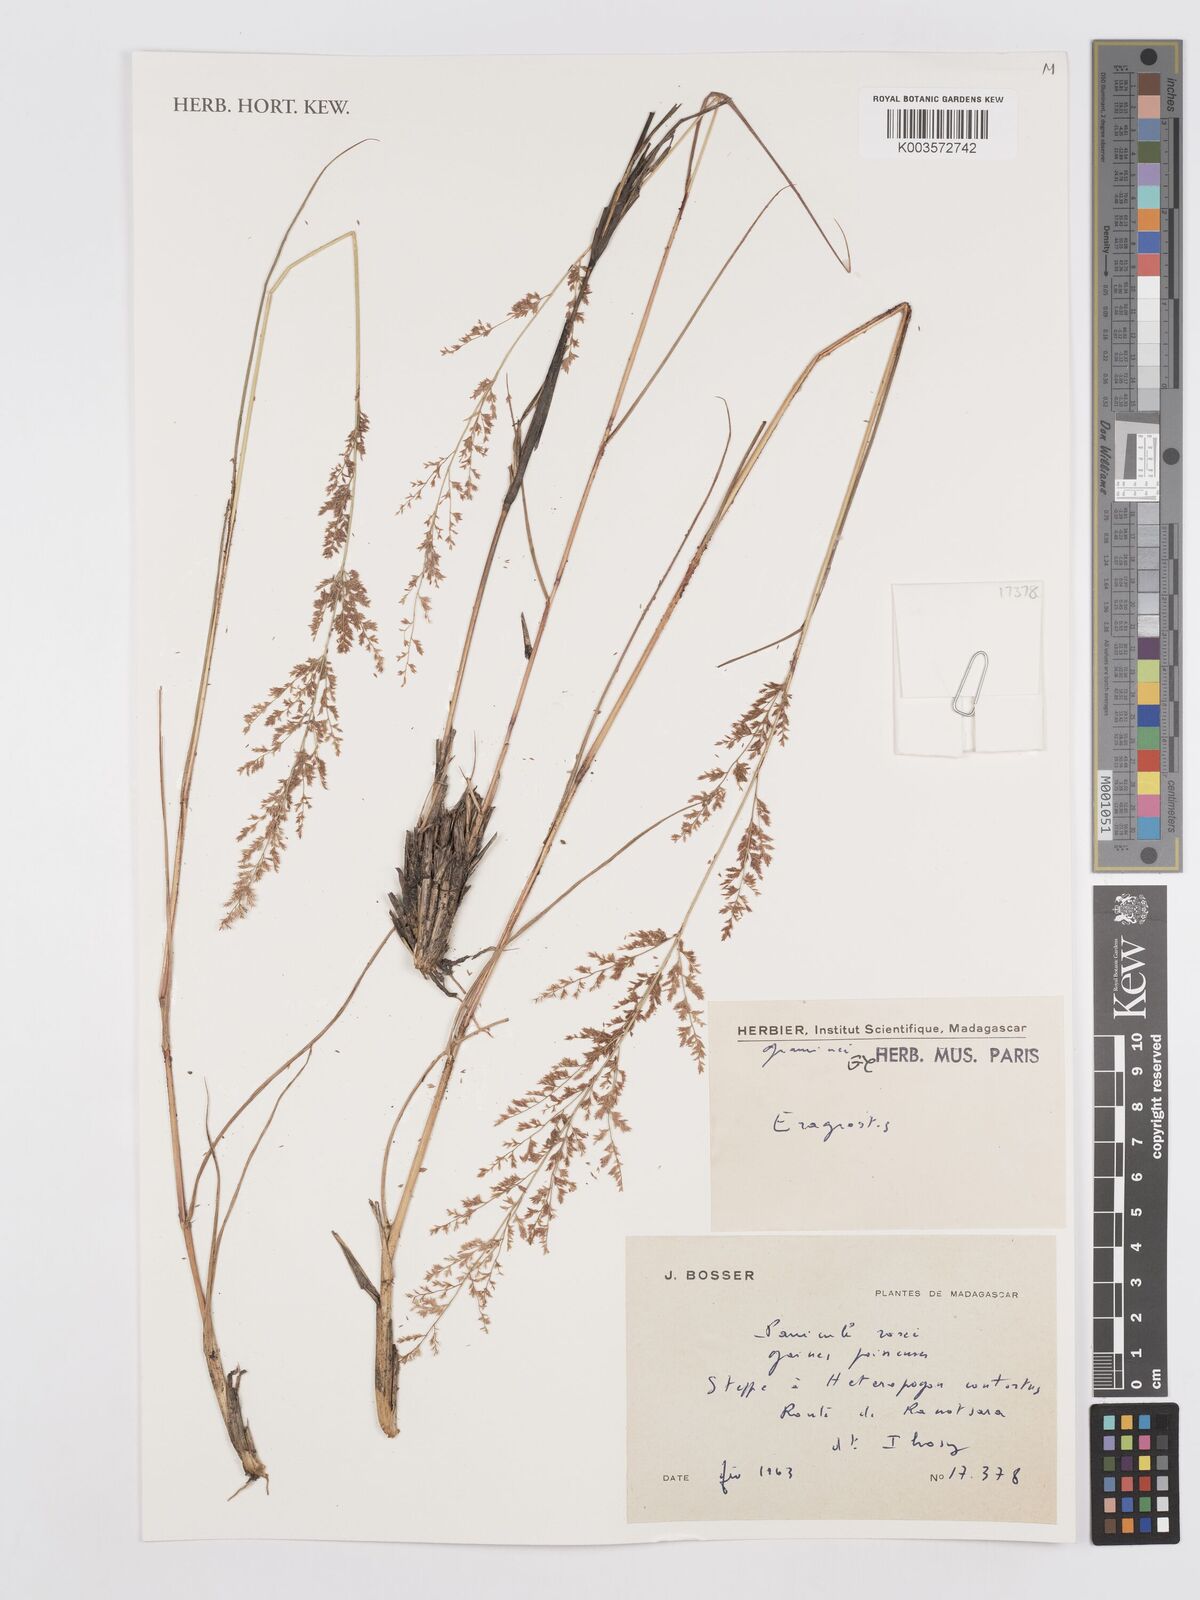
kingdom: Plantae
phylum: Tracheophyta
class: Liliopsida
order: Poales
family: Poaceae
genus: Eragrostis
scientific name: Eragrostis
